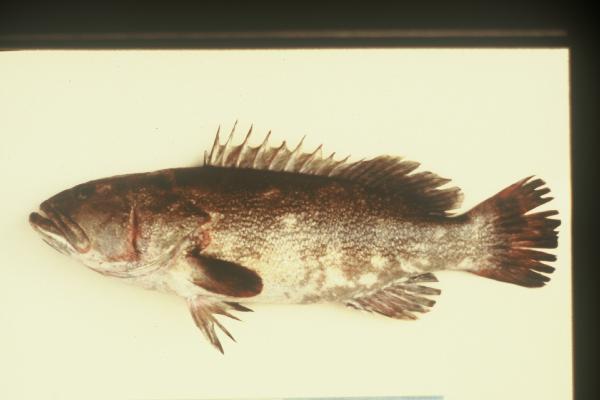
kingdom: Animalia
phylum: Chordata
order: Perciformes
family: Serranidae
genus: Epinephelus
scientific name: Epinephelus bruneus
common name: Longtooth grouper
